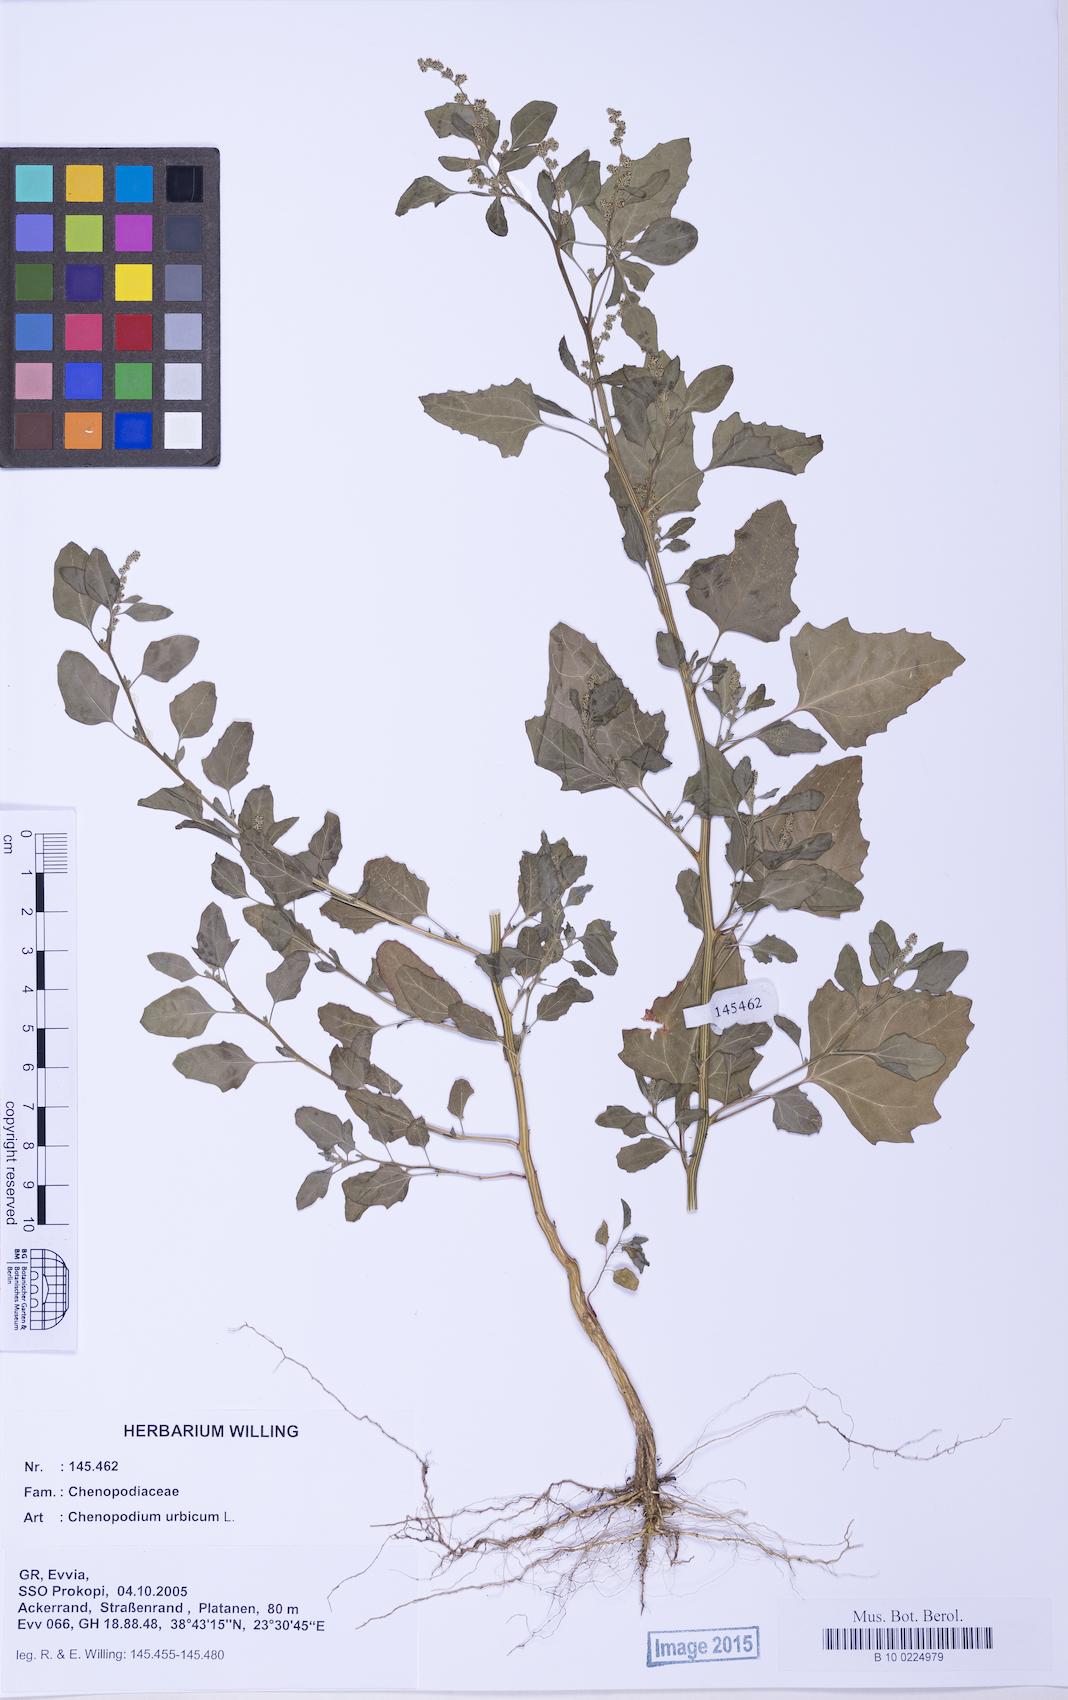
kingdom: Plantae
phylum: Tracheophyta
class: Magnoliopsida
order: Caryophyllales
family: Amaranthaceae
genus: Chenopodium
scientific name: Chenopodium album
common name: Fat-hen
